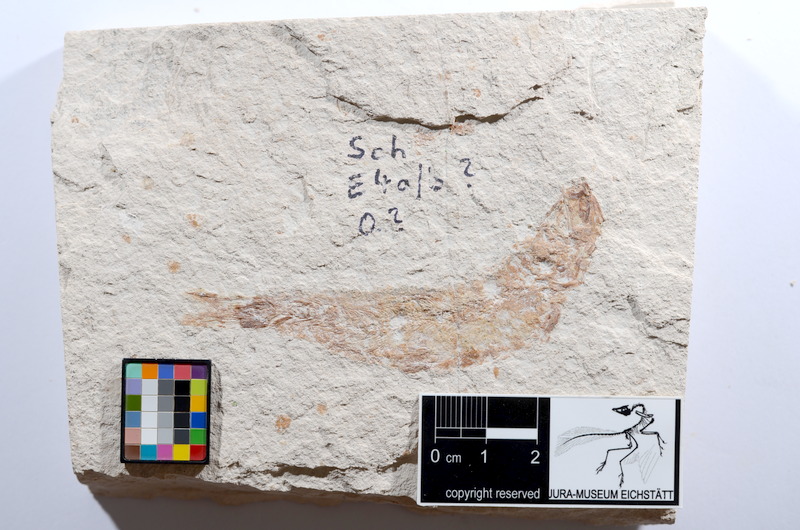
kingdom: Animalia
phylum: Chordata
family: Ascalaboidae
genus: Tharsis
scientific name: Tharsis dubius
